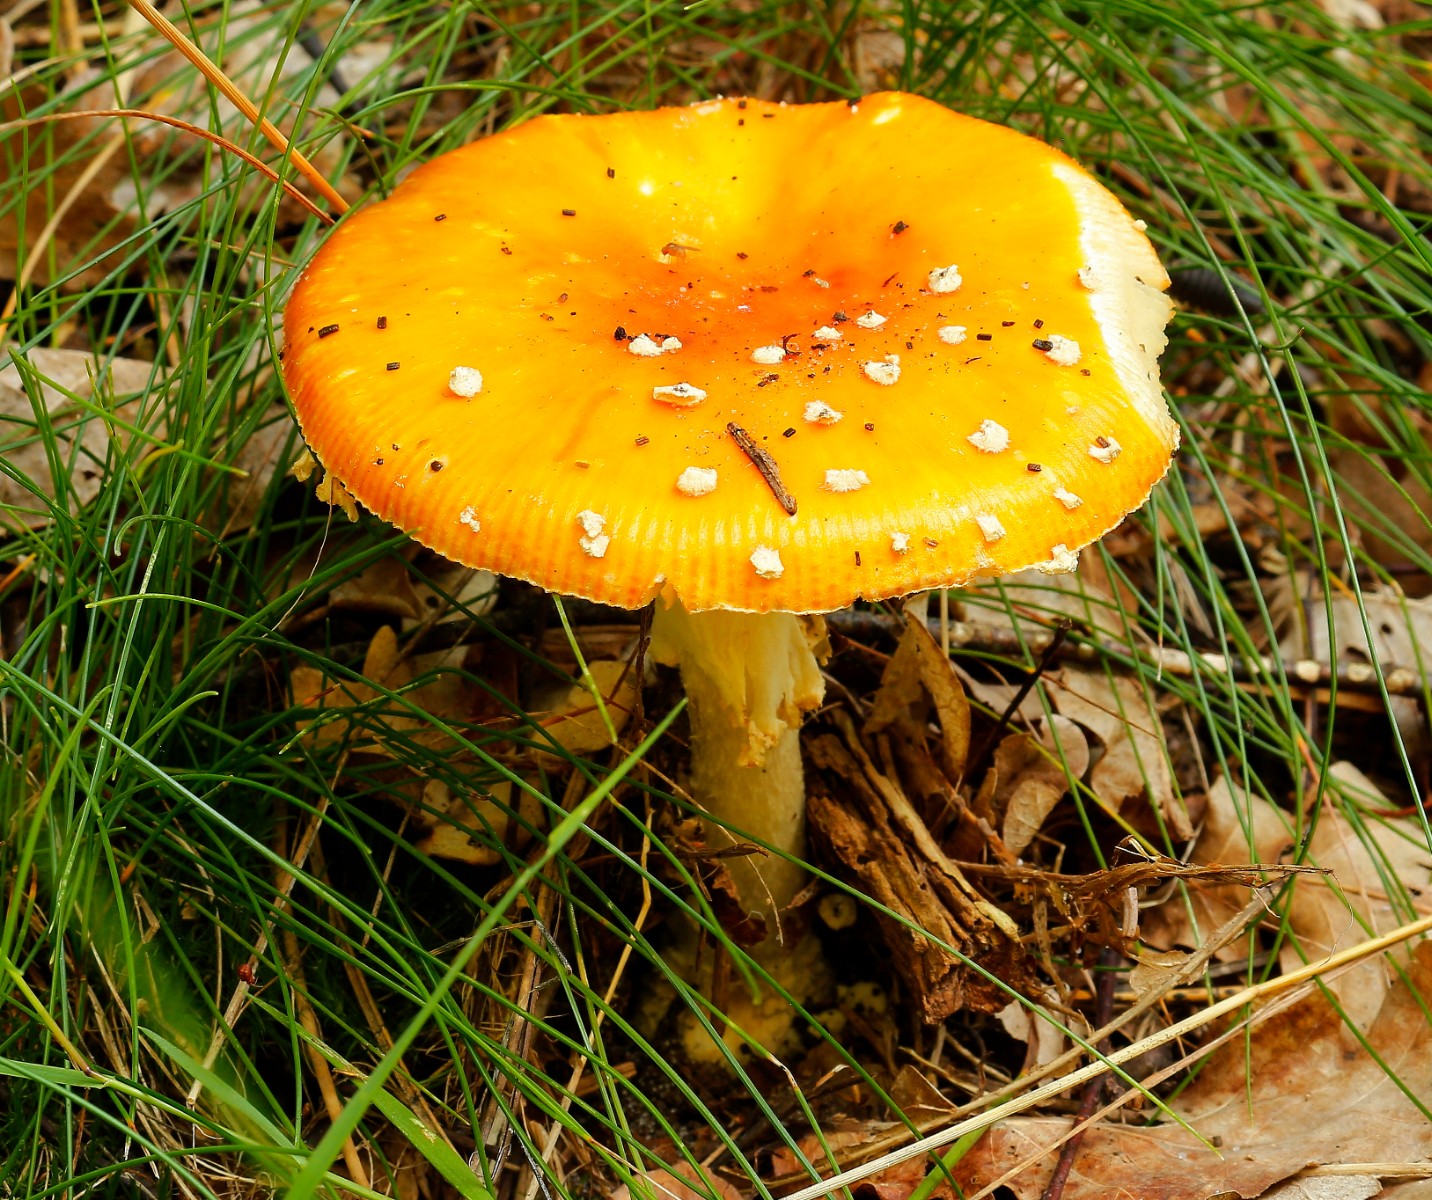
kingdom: Fungi
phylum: Basidiomycota
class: Agaricomycetes
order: Agaricales
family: Amanitaceae
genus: Amanita
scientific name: Amanita muscaria
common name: rød fluesvamp
